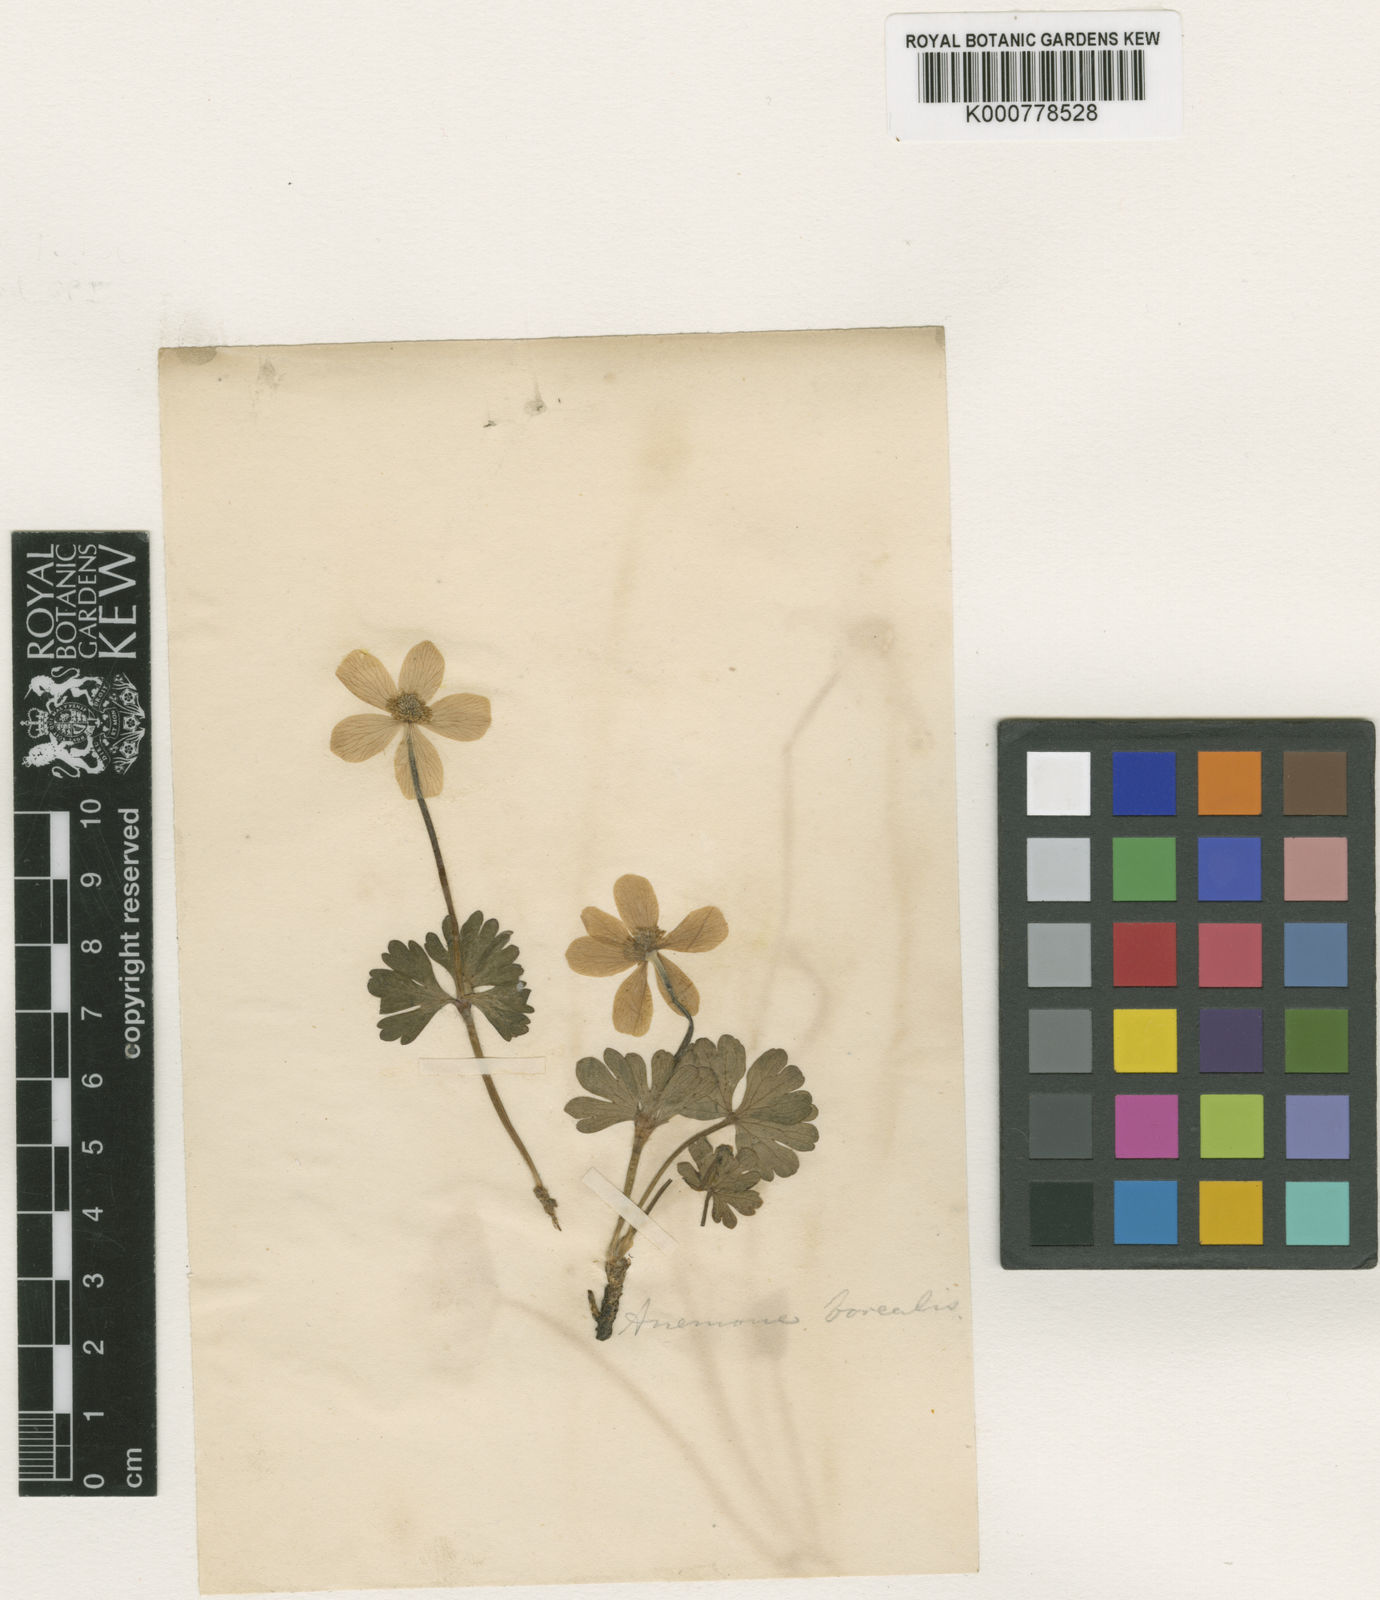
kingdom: Plantae
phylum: Tracheophyta
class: Magnoliopsida
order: Ranunculales
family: Ranunculaceae
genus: Anemone
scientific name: Anemone parviflora
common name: Northern anemone
